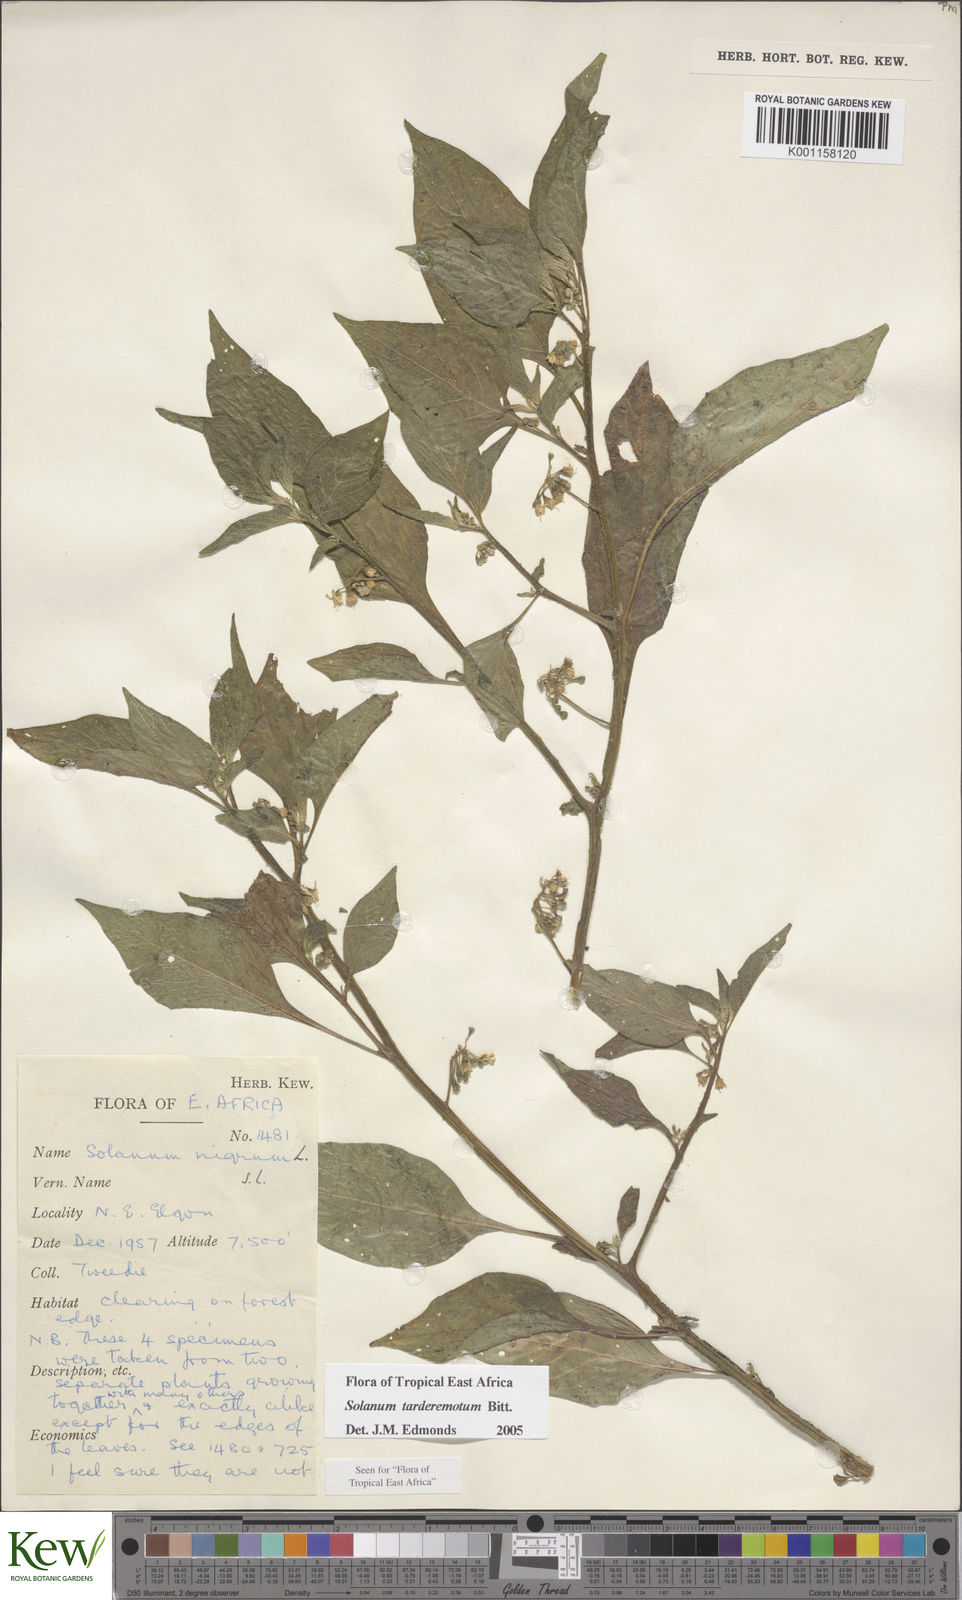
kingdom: Plantae
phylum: Tracheophyta
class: Magnoliopsida
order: Solanales
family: Solanaceae
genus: Solanum
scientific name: Solanum tarderemotum
